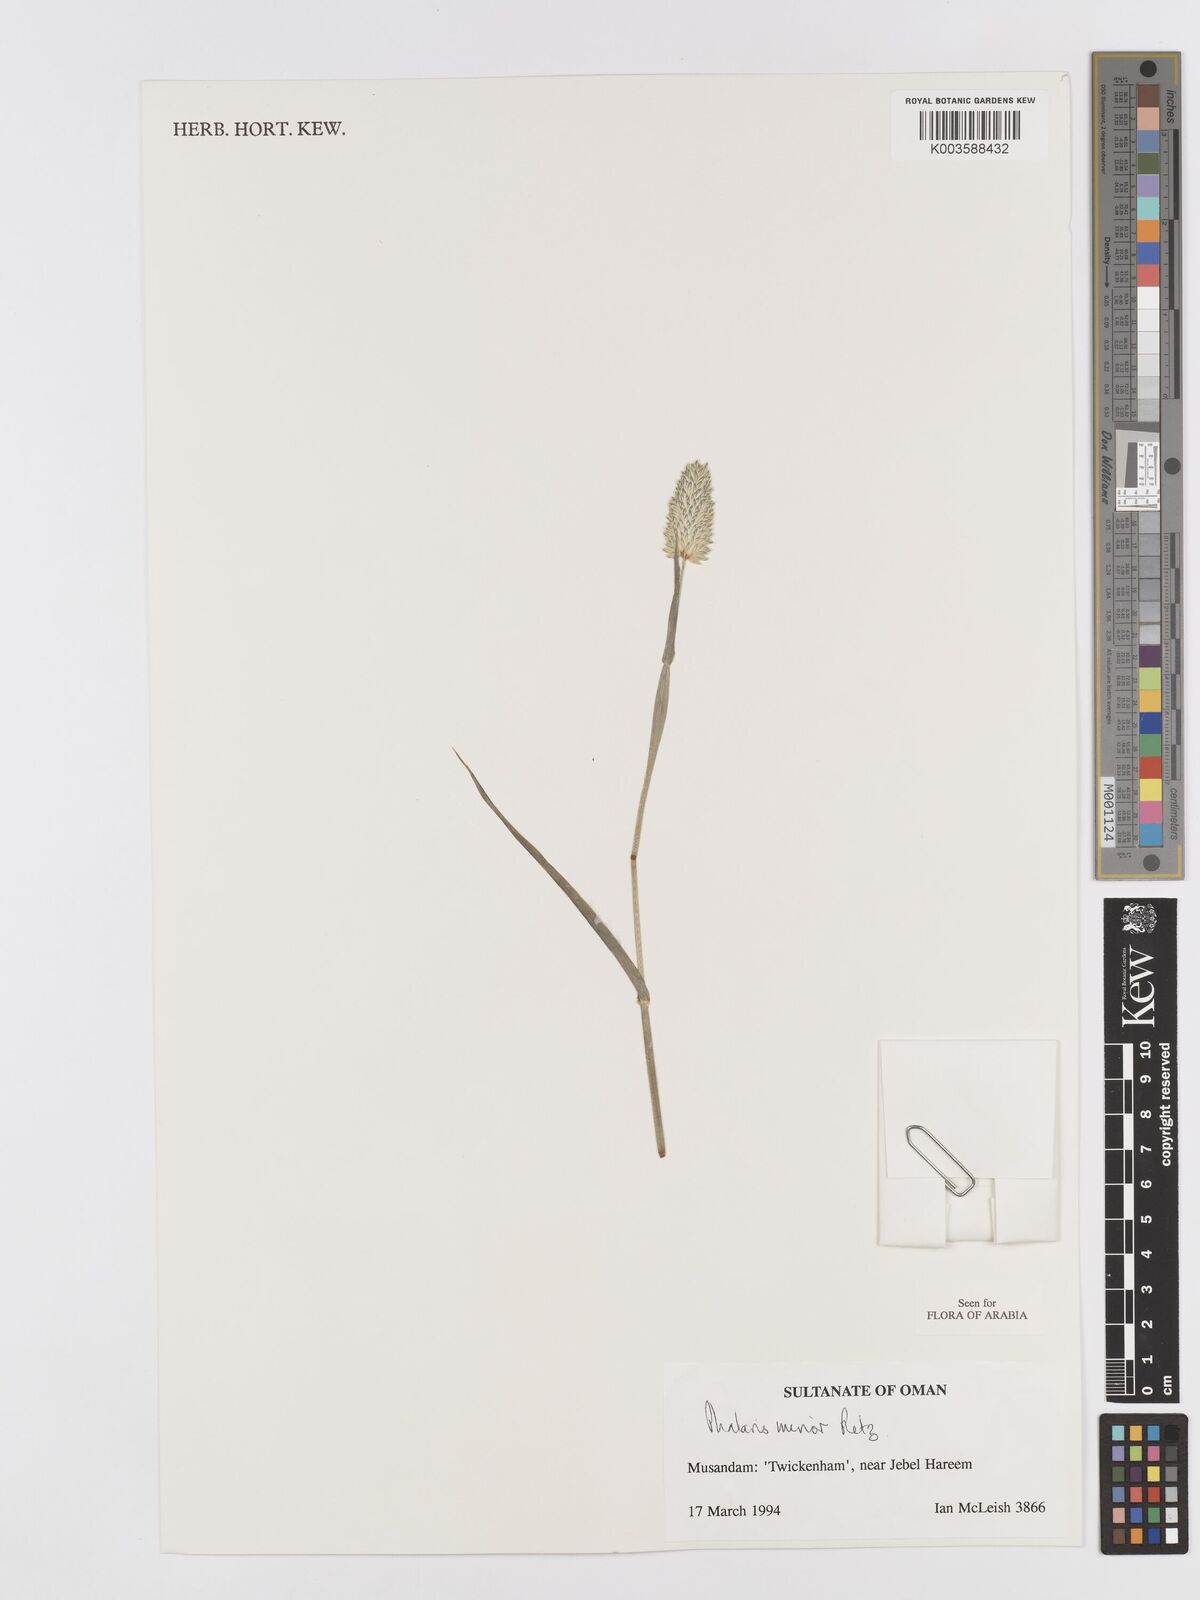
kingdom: Plantae
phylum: Tracheophyta
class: Liliopsida
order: Poales
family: Poaceae
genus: Phalaris
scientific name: Phalaris minor
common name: Littleseed canarygrass
